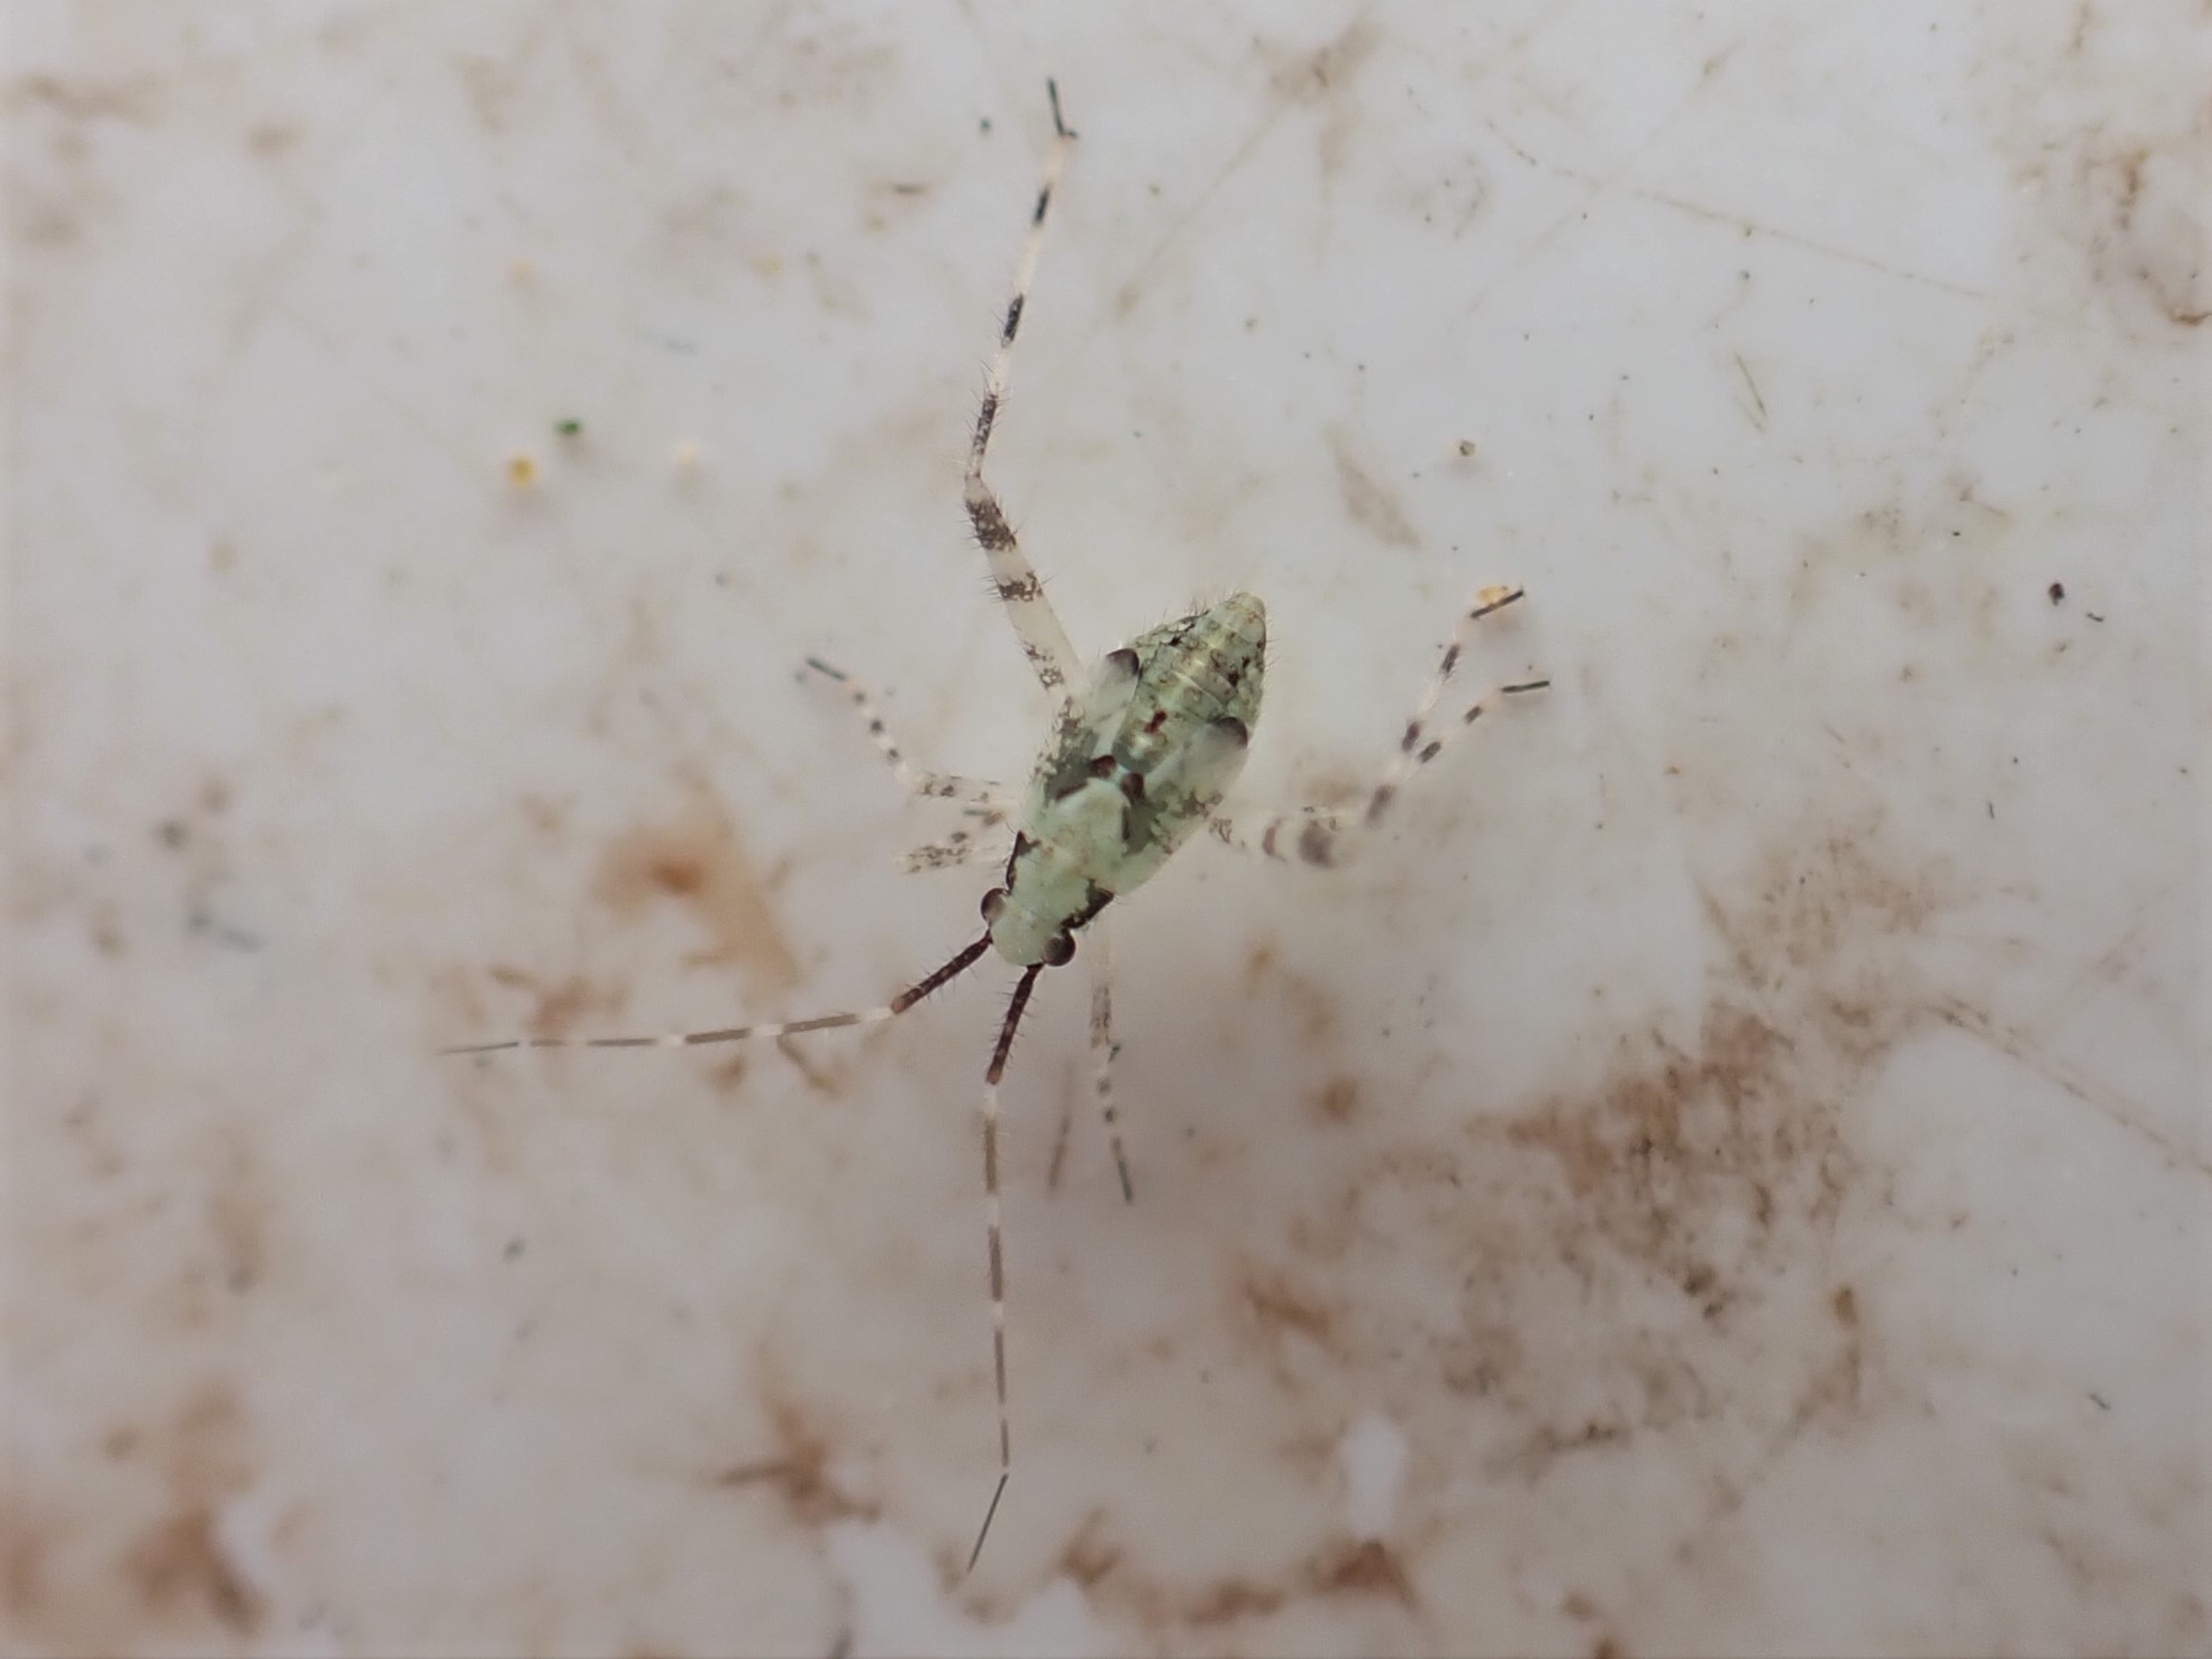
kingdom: Animalia
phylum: Arthropoda
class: Insecta
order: Hemiptera
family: Miridae
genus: Phytocoris
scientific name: Phytocoris tiliae
